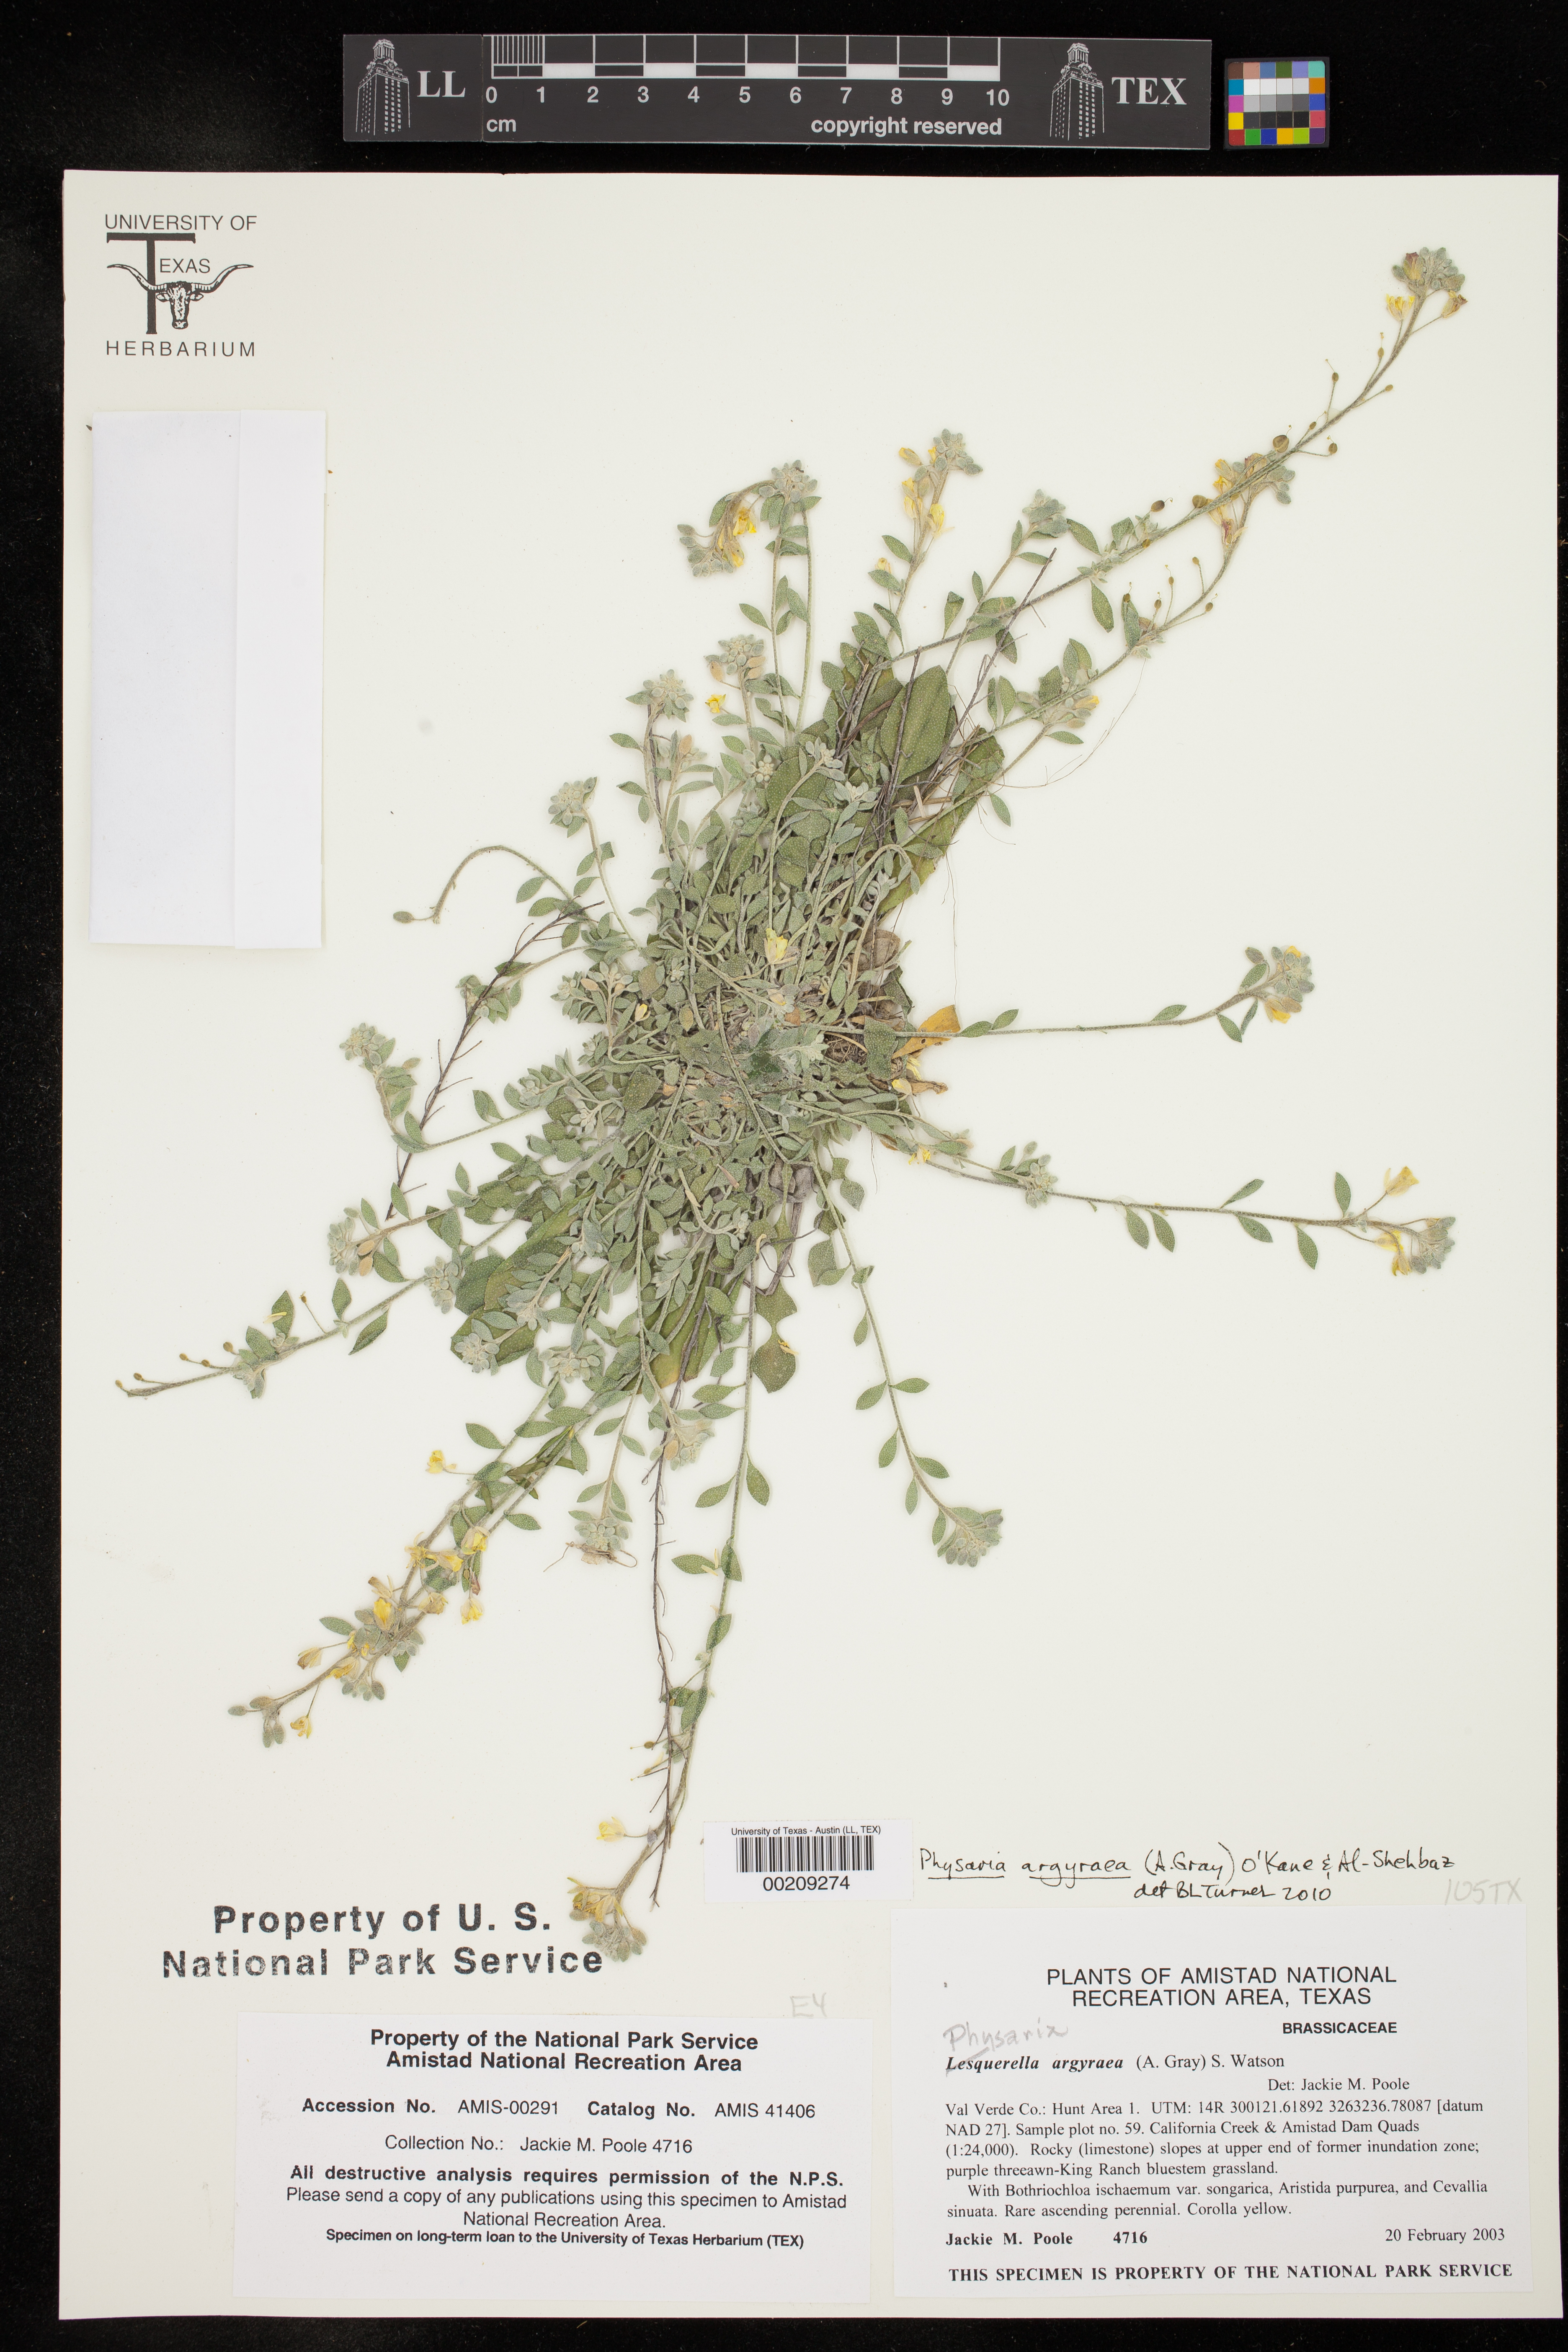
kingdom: Plantae
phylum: Tracheophyta
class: Magnoliopsida
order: Brassicales
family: Brassicaceae
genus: Physaria
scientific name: Physaria argyraea
